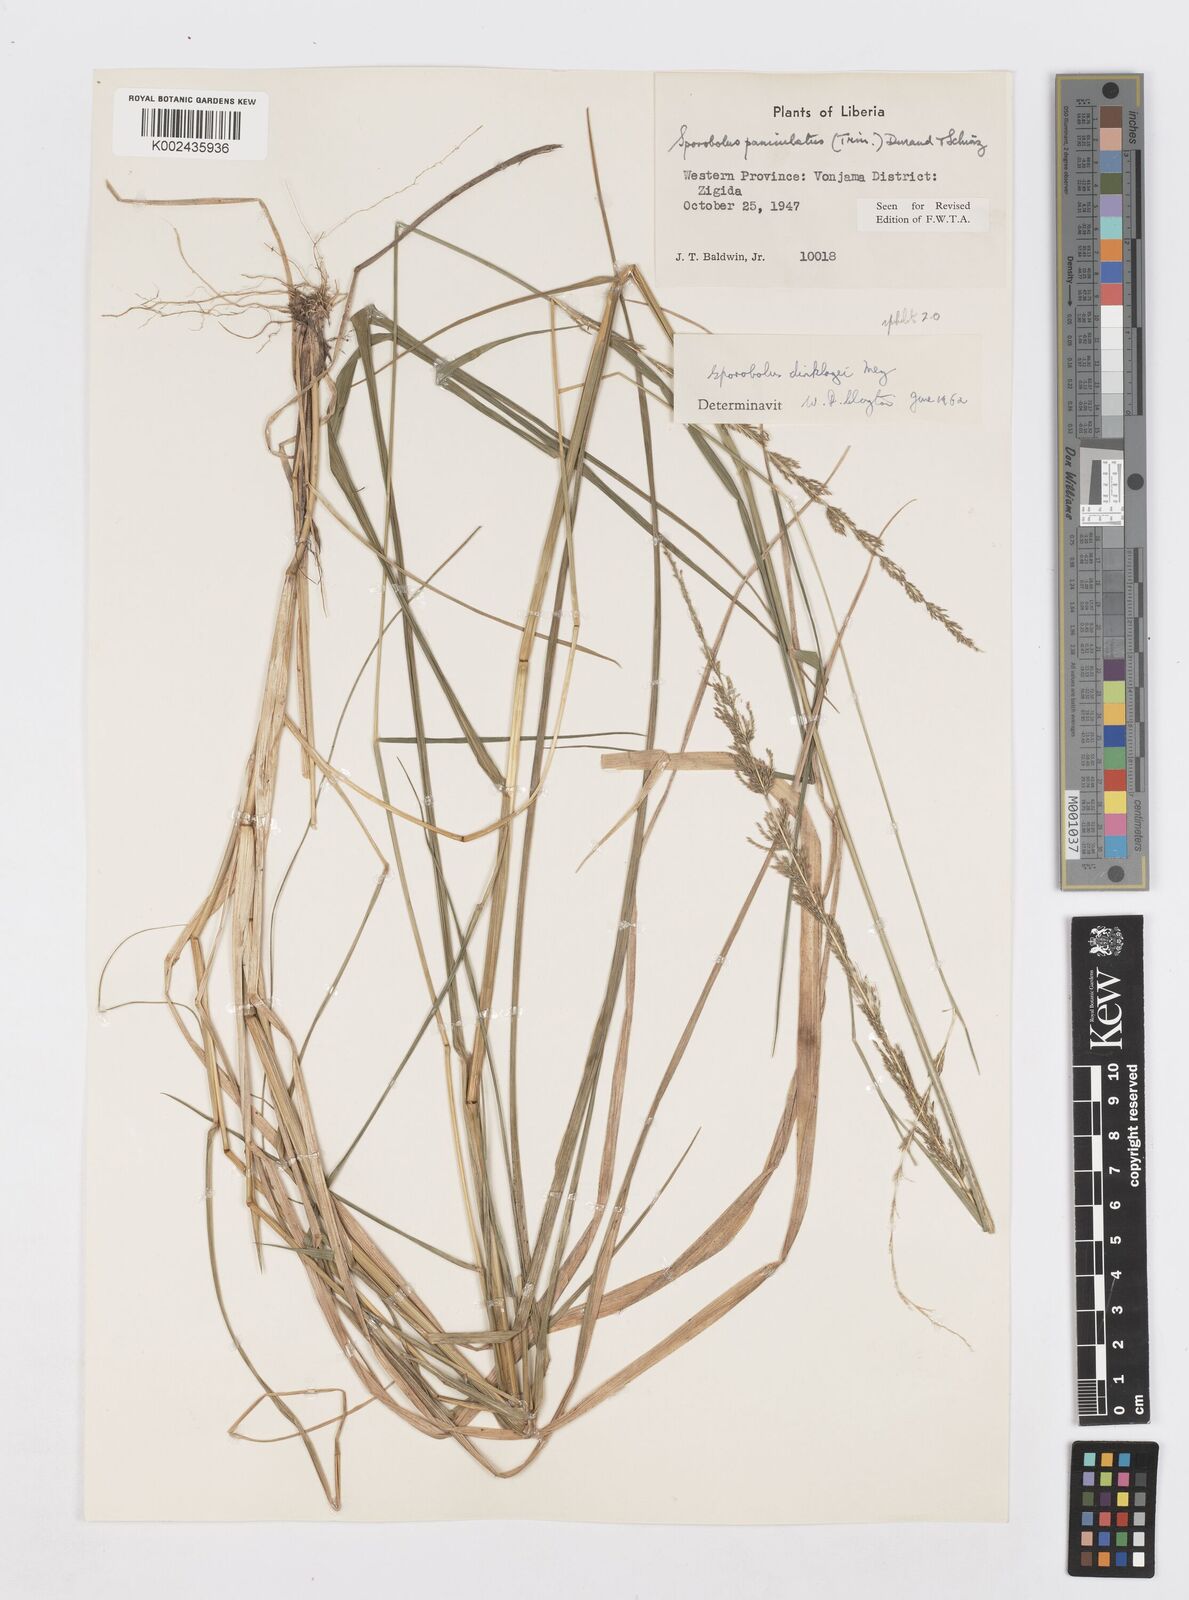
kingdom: Plantae
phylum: Tracheophyta
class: Liliopsida
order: Poales
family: Poaceae
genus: Sporobolus
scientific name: Sporobolus dinklagei
